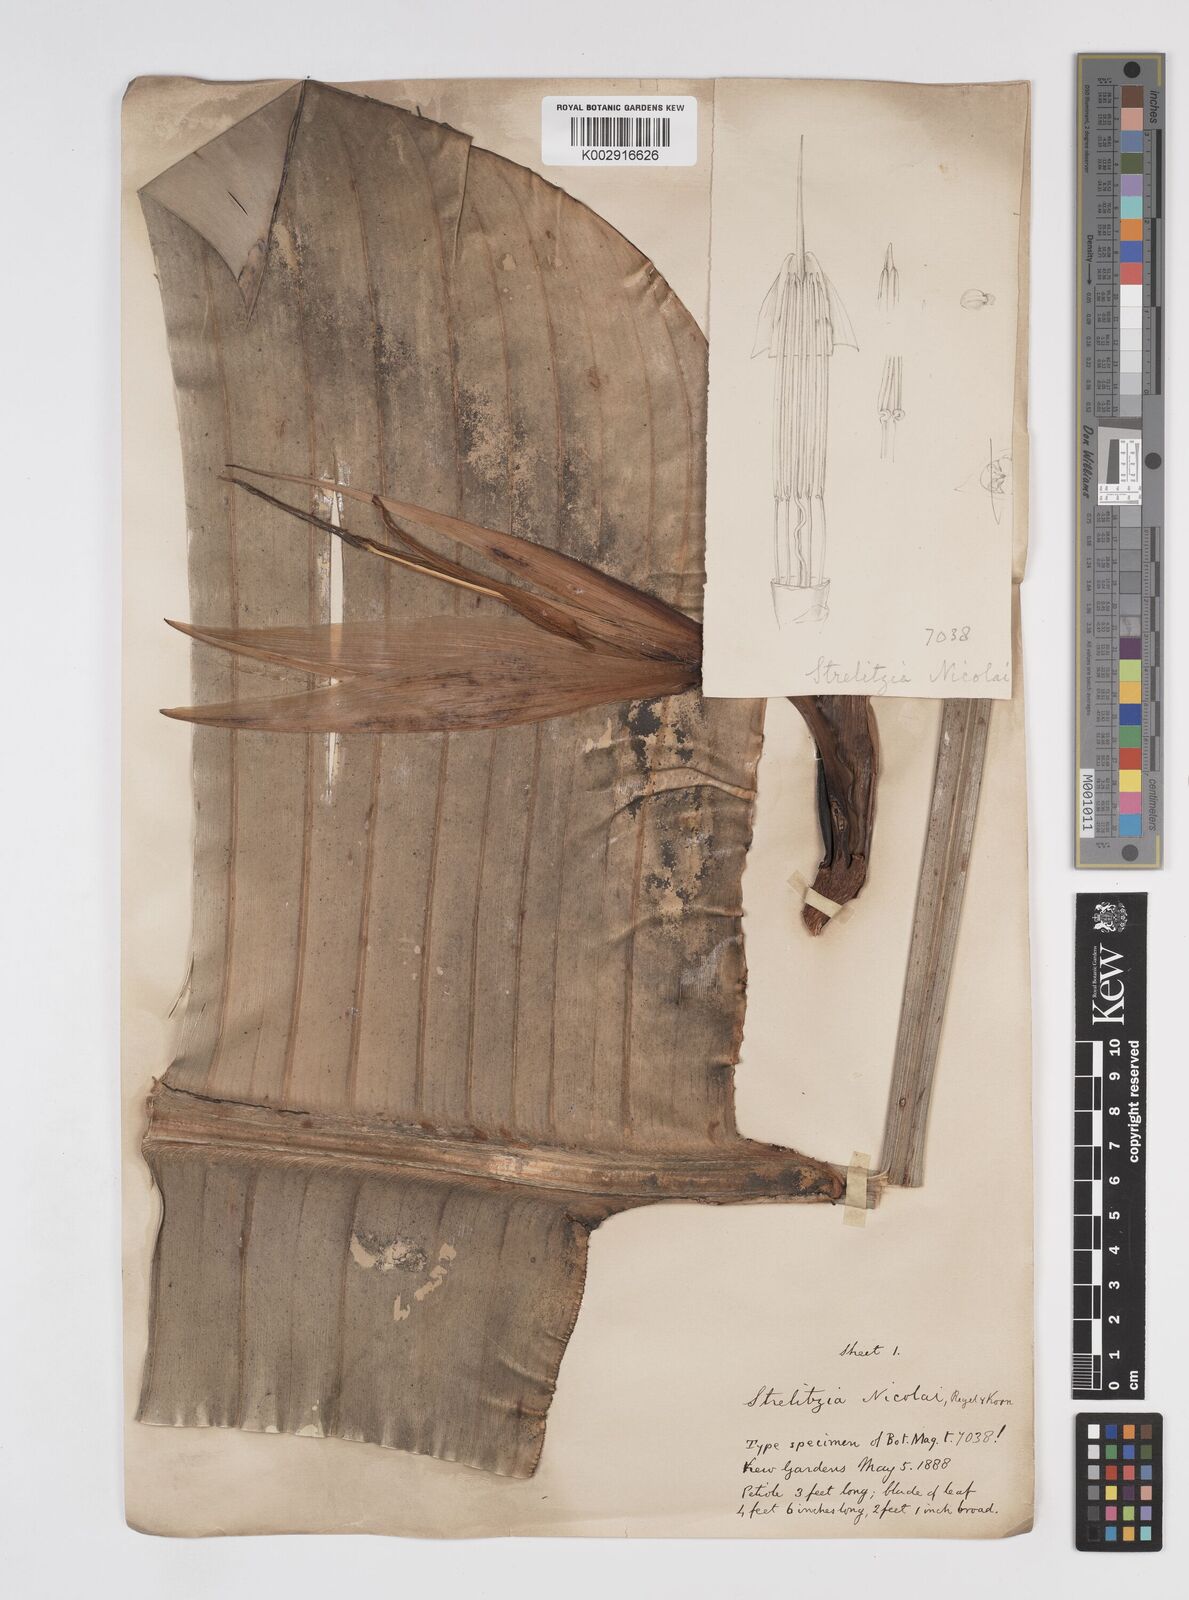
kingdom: Plantae
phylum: Tracheophyta
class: Liliopsida
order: Zingiberales
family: Strelitziaceae
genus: Strelitzia
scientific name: Strelitzia nicolai
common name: Bird-of-paradise tree
